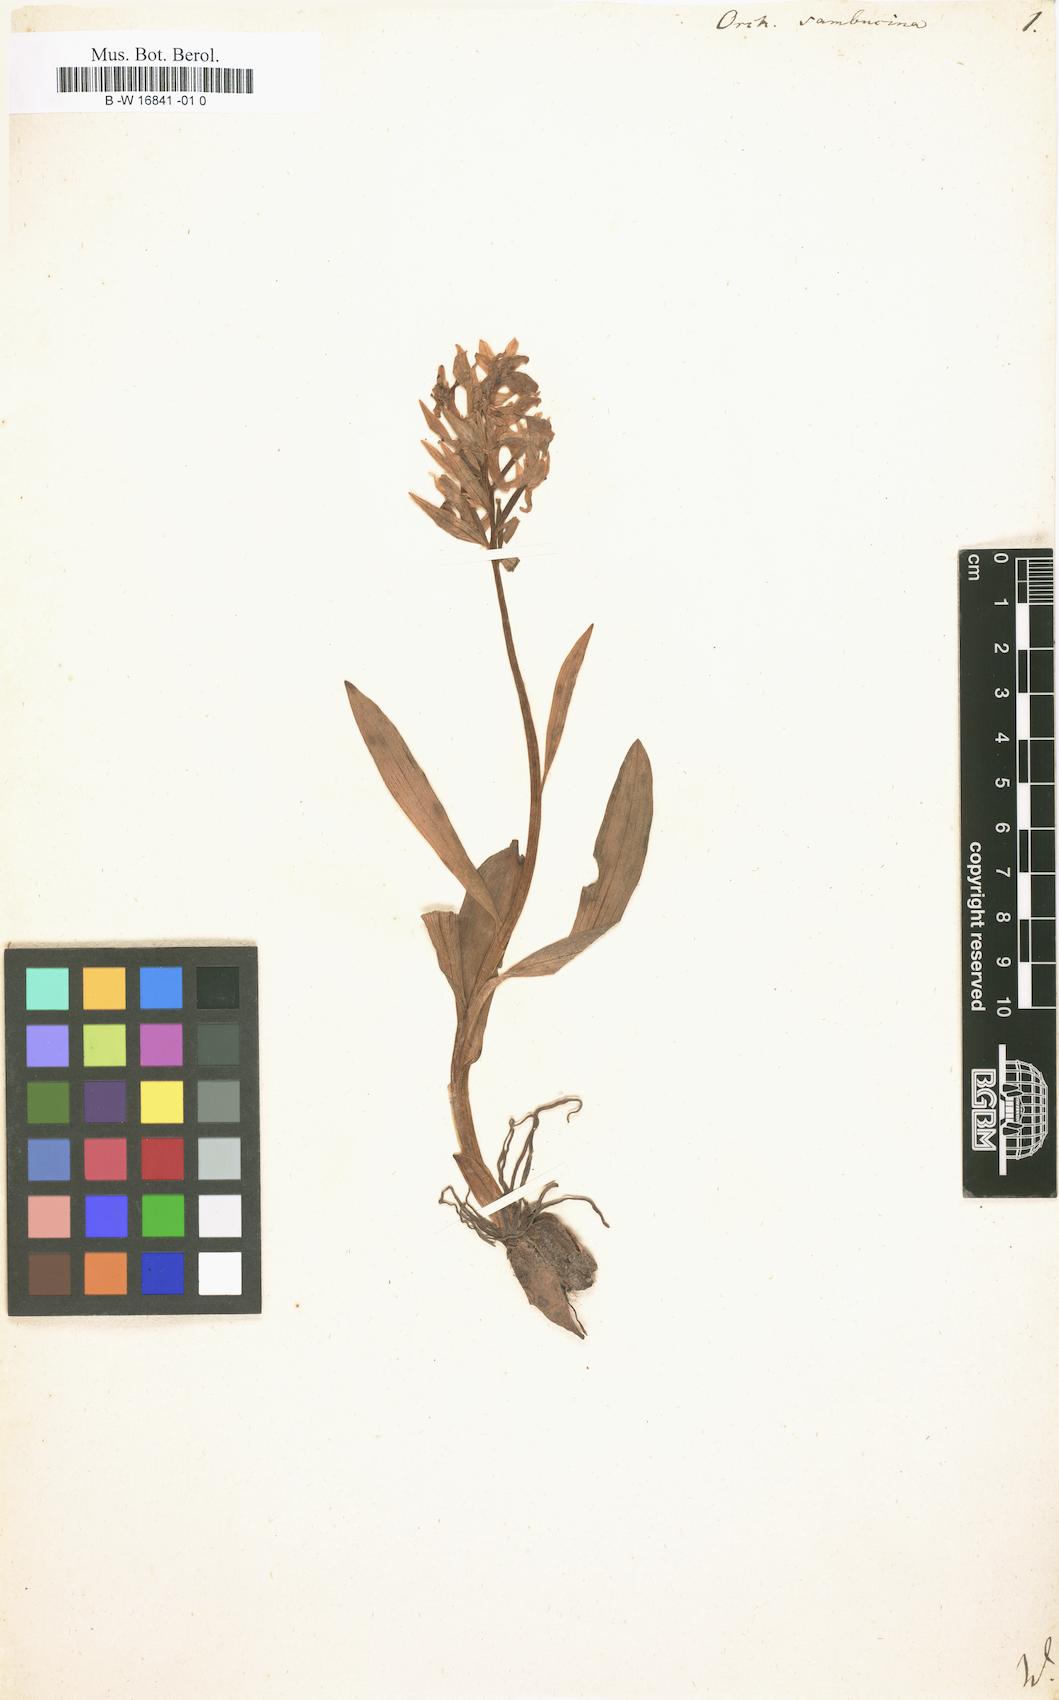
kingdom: Plantae
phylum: Tracheophyta
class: Liliopsida
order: Asparagales
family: Orchidaceae
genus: Dactylorhiza
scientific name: Dactylorhiza sambucina
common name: Elder-flowered orchid
